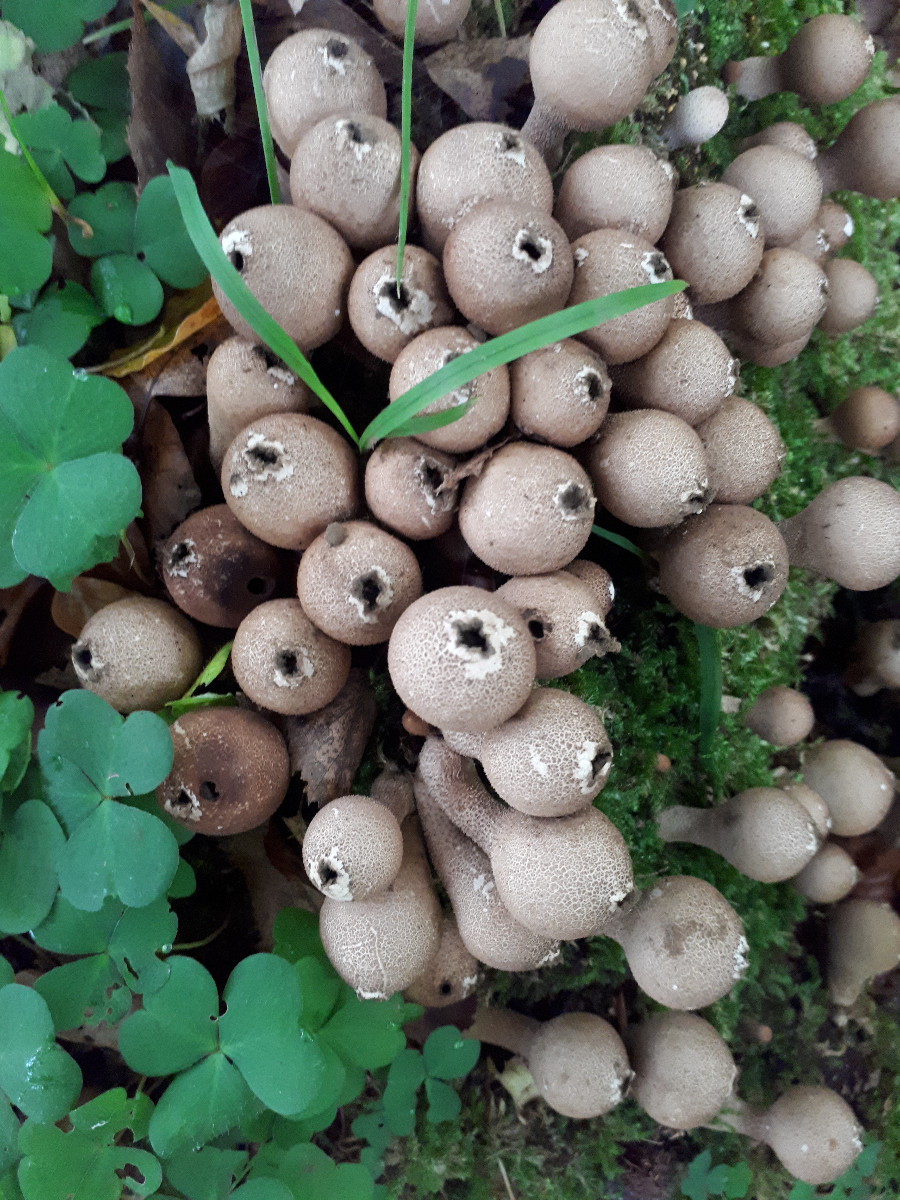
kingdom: Fungi
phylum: Basidiomycota
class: Agaricomycetes
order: Agaricales
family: Lycoperdaceae
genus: Apioperdon
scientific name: Apioperdon pyriforme
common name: pære-støvbold
